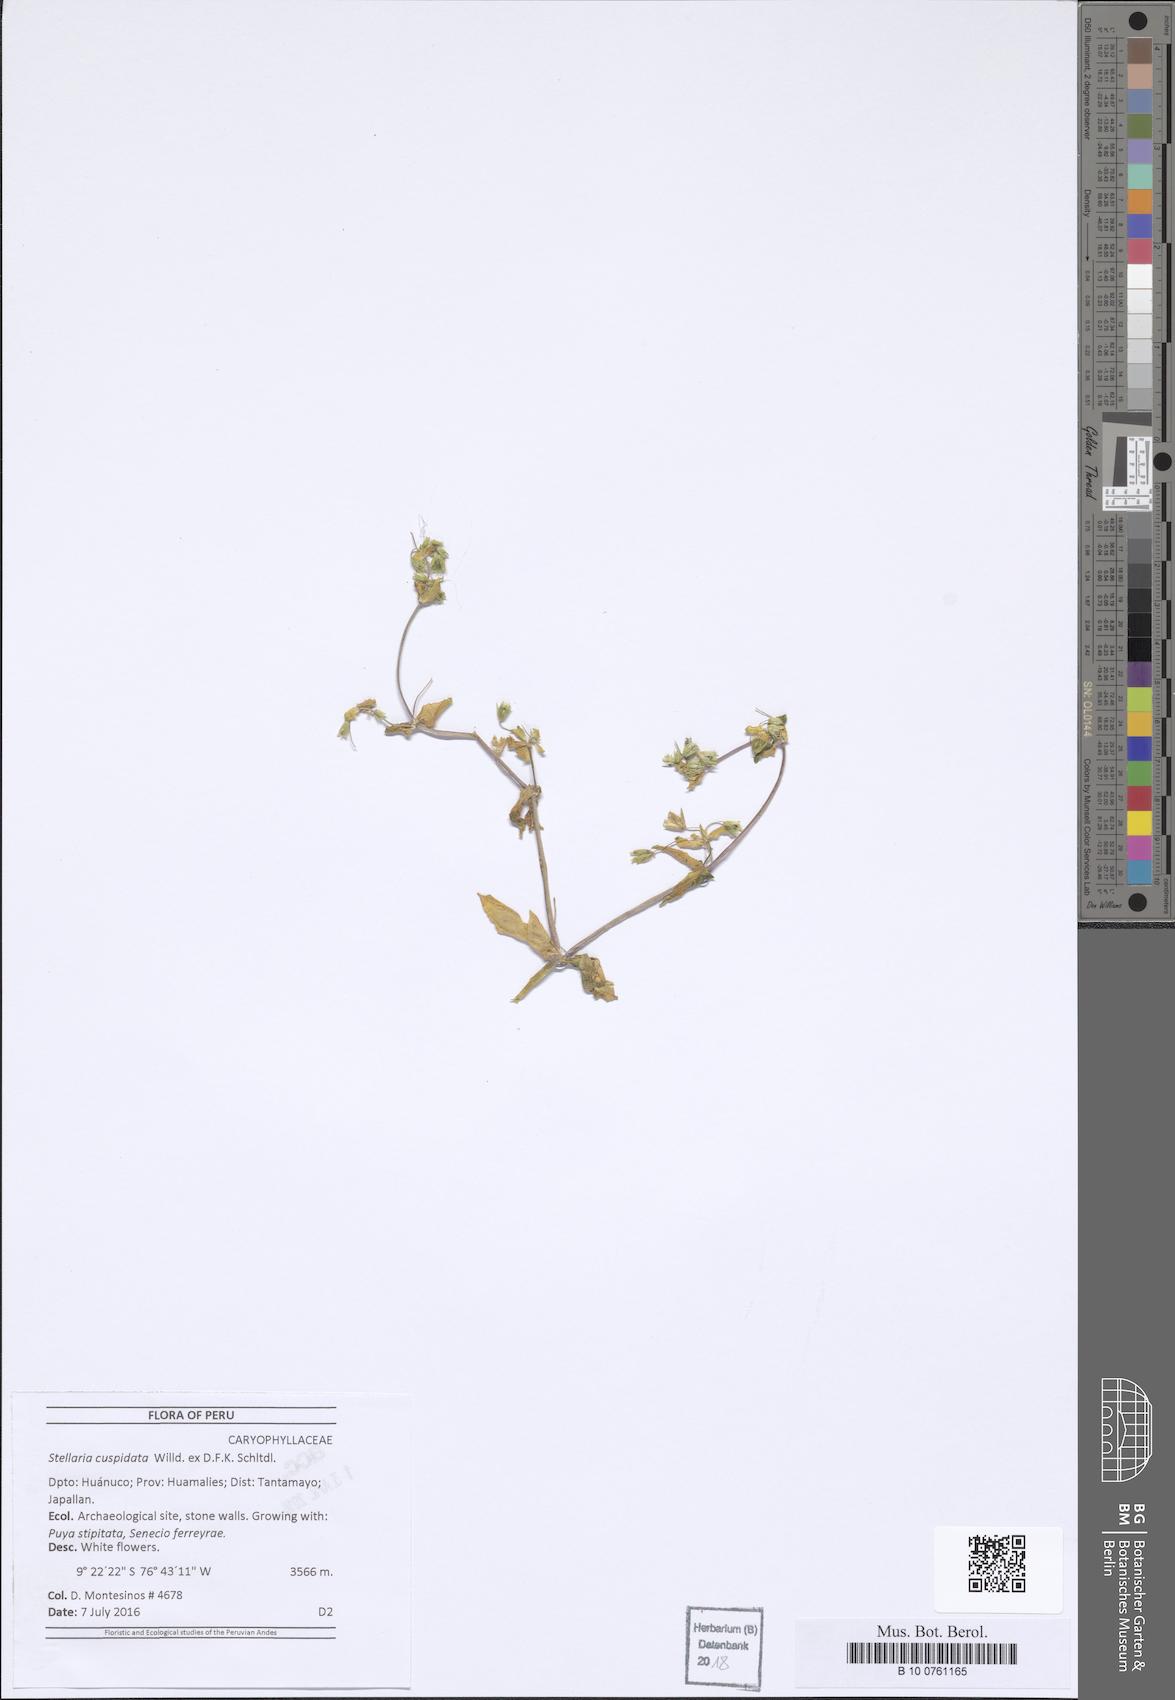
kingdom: Plantae
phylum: Tracheophyta
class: Magnoliopsida
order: Caryophyllales
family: Caryophyllaceae
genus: Stellaria
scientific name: Stellaria cuspidata
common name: Mexican chickweed
